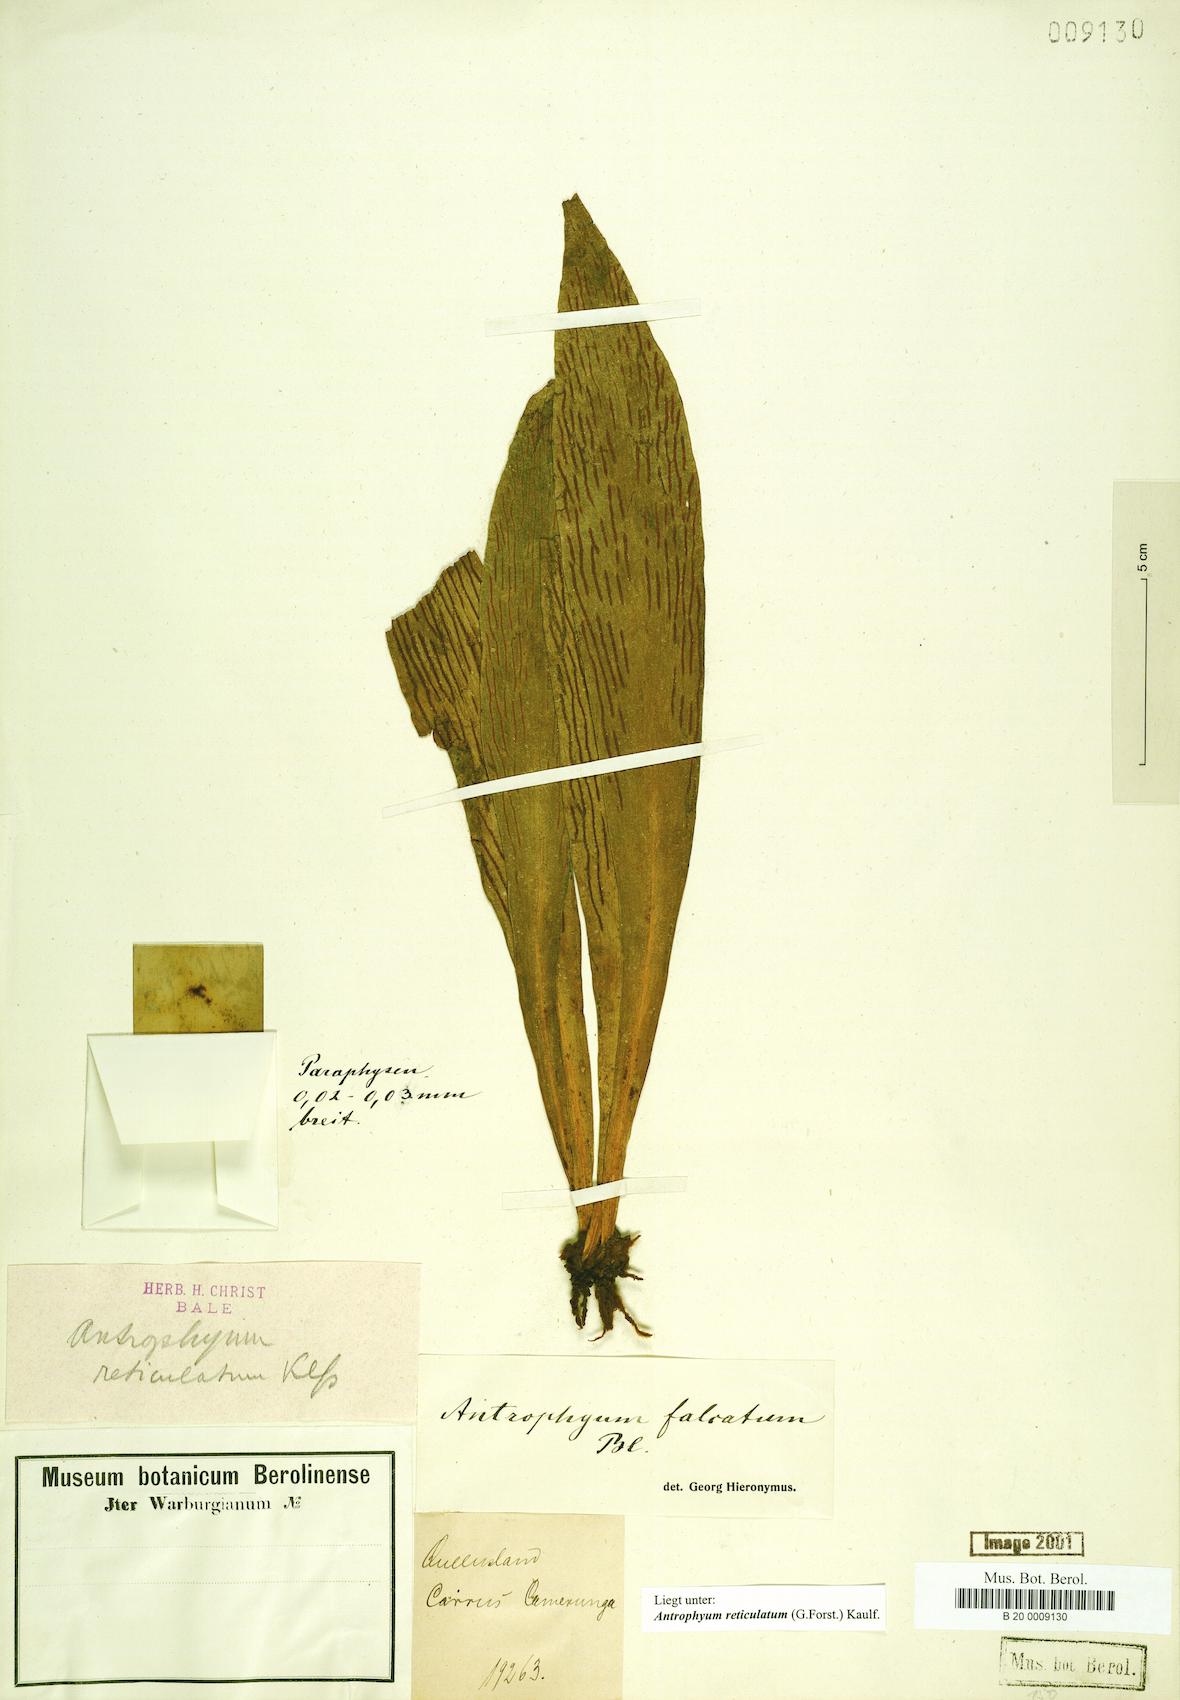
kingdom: Plantae
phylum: Tracheophyta
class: Polypodiopsida
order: Polypodiales
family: Pteridaceae
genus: Antrophyum
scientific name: Antrophyum reticulatum
